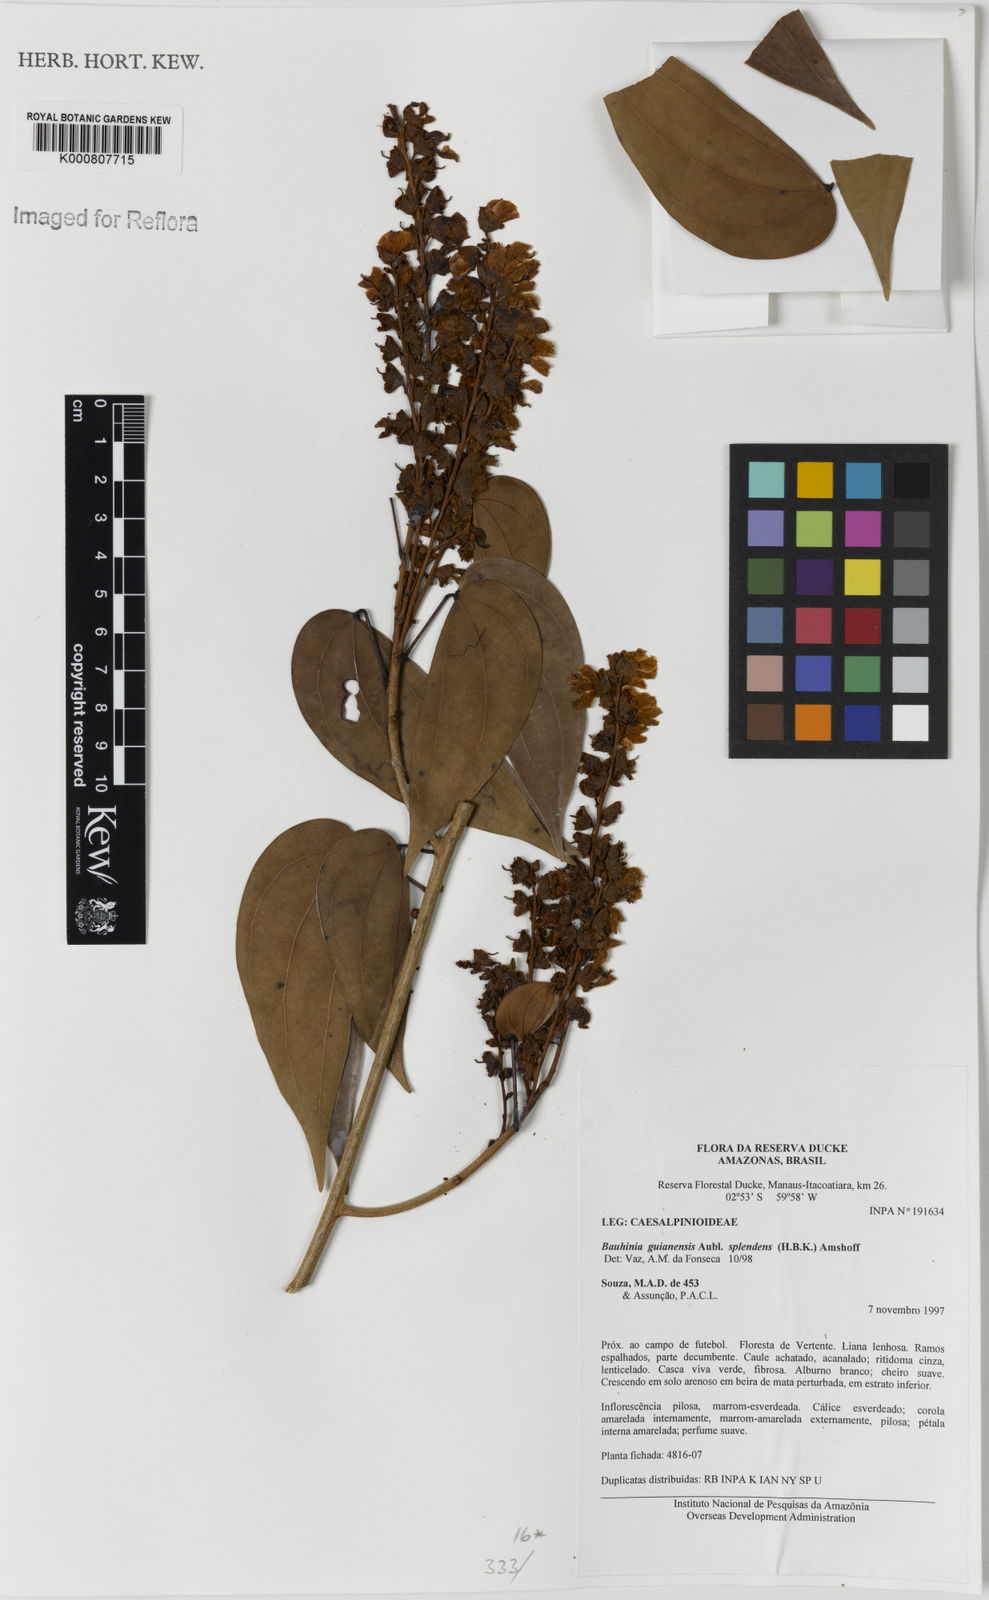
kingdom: Plantae
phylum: Tracheophyta
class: Magnoliopsida
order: Fabales
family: Fabaceae
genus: Schnella
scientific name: Schnella splendens
